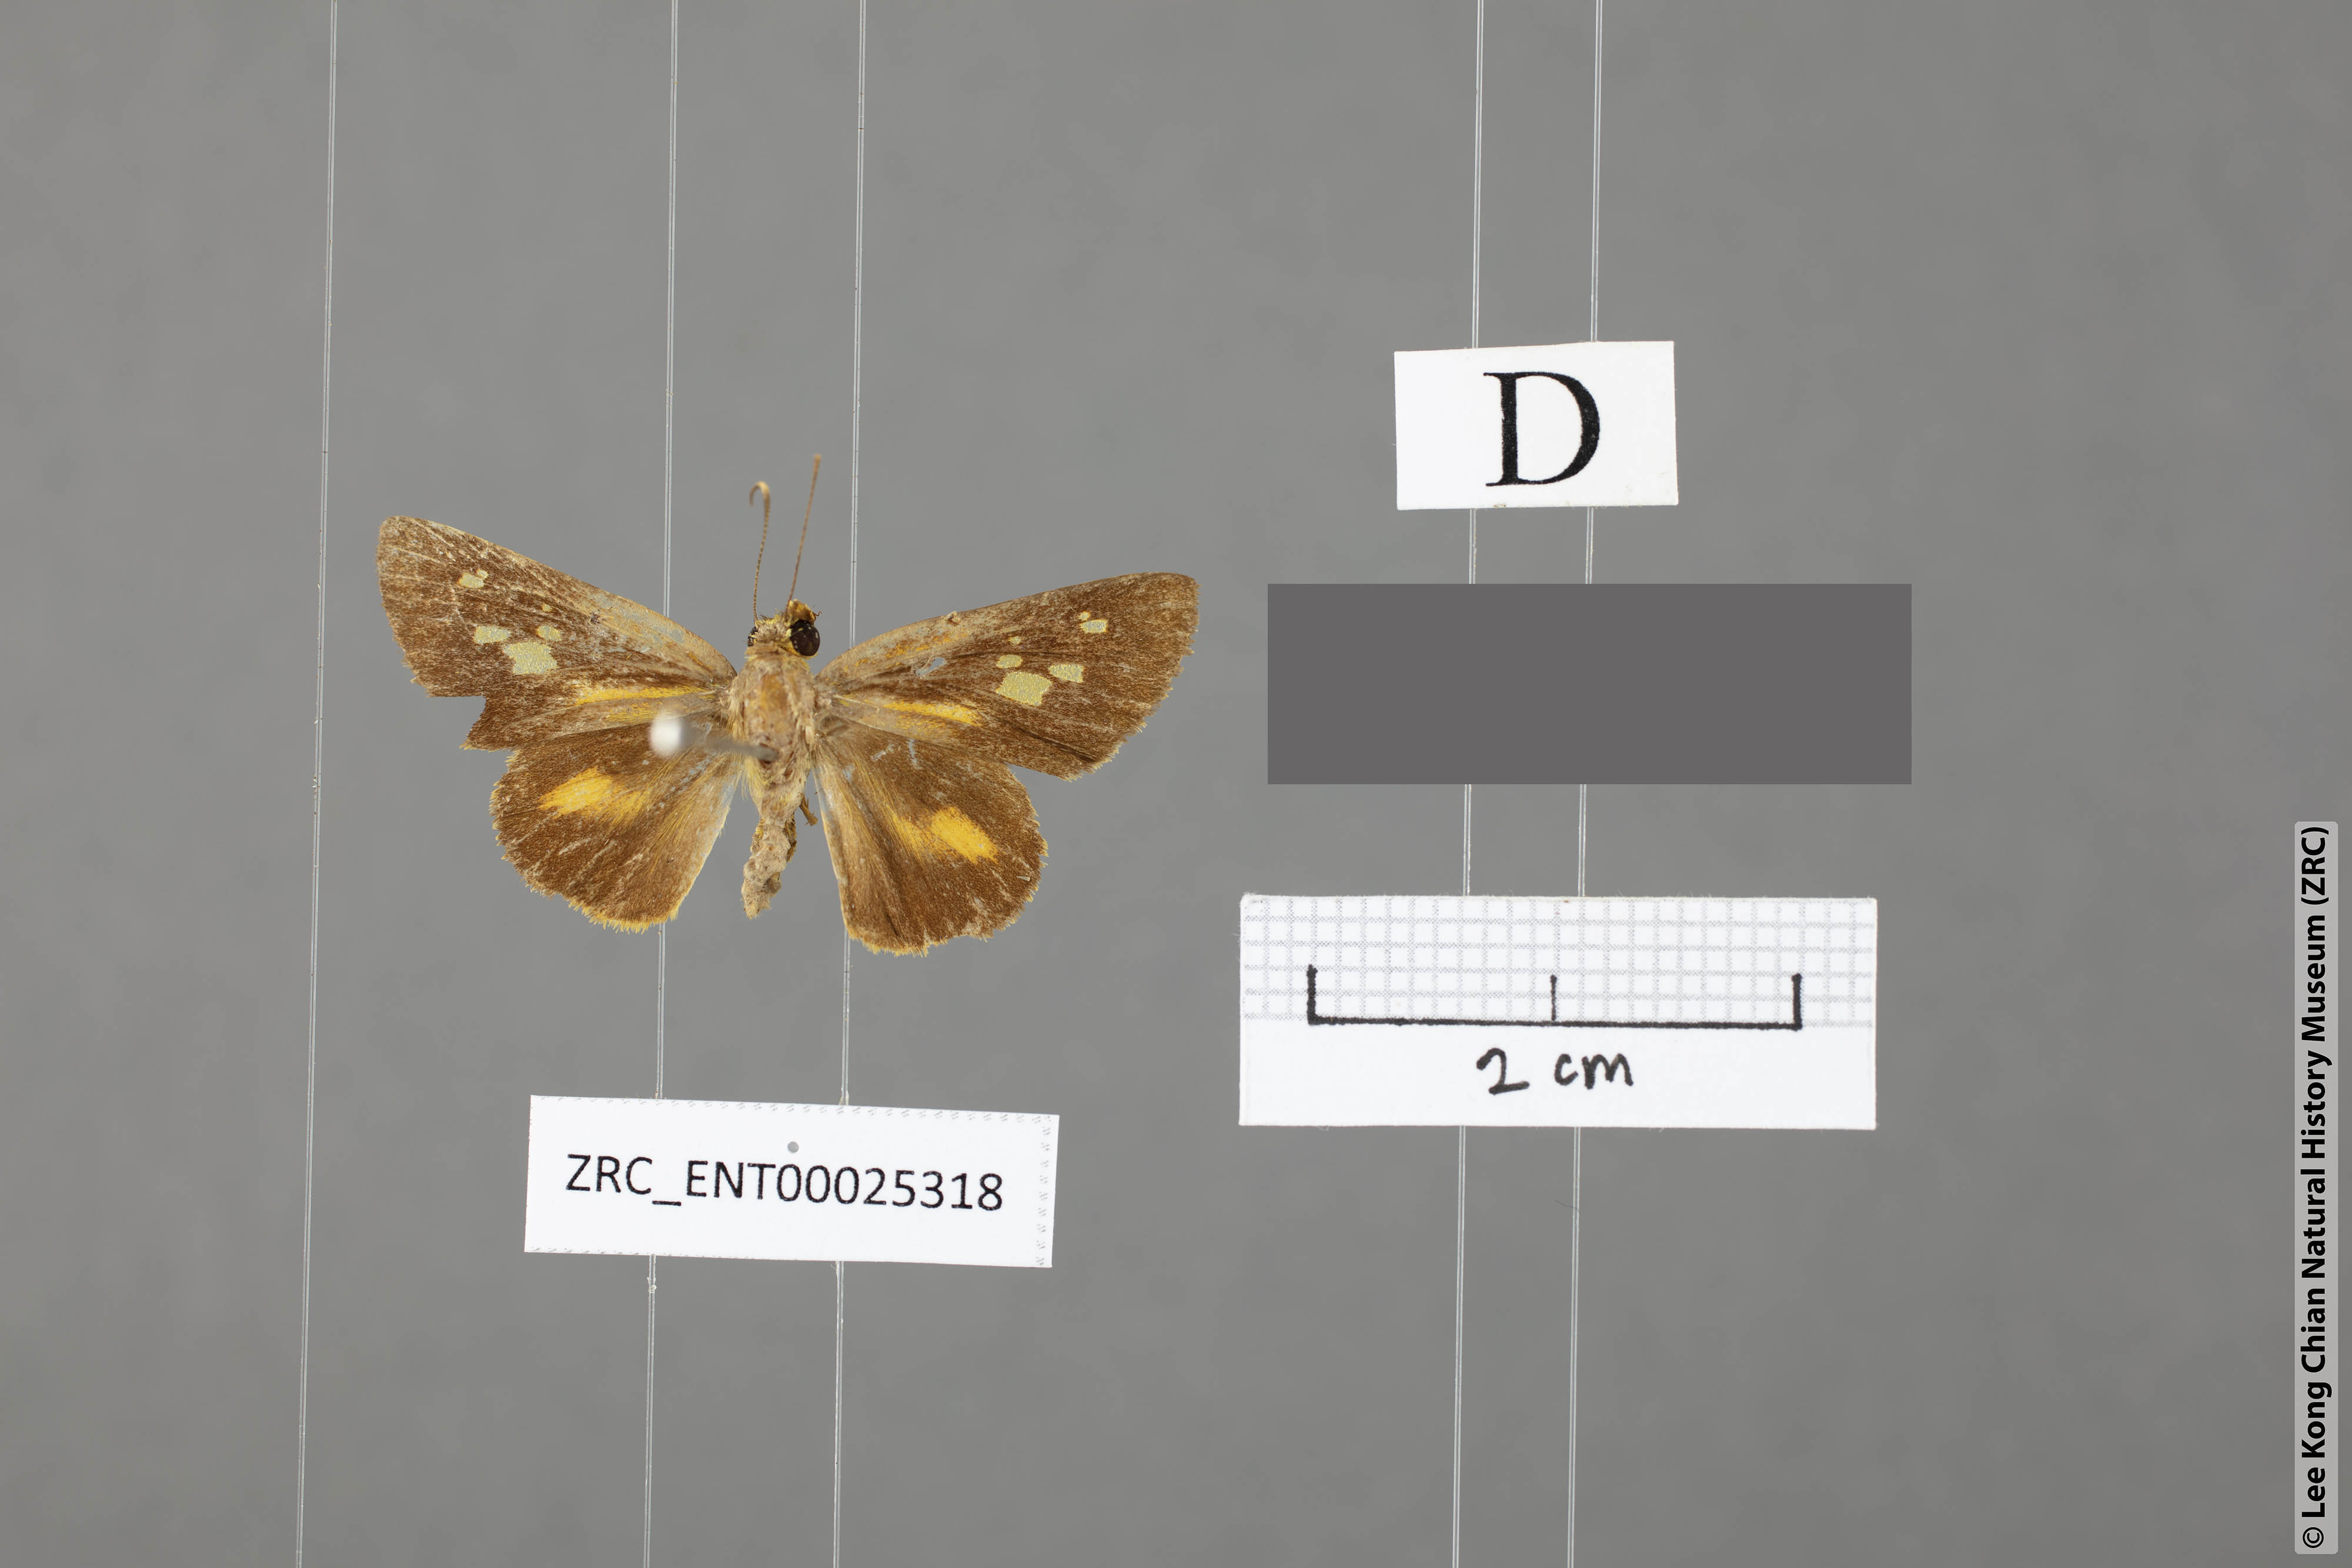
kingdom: Animalia
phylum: Arthropoda
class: Insecta
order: Lepidoptera
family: Hesperiidae
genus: Salanoemia
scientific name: Salanoemia tavoyana
